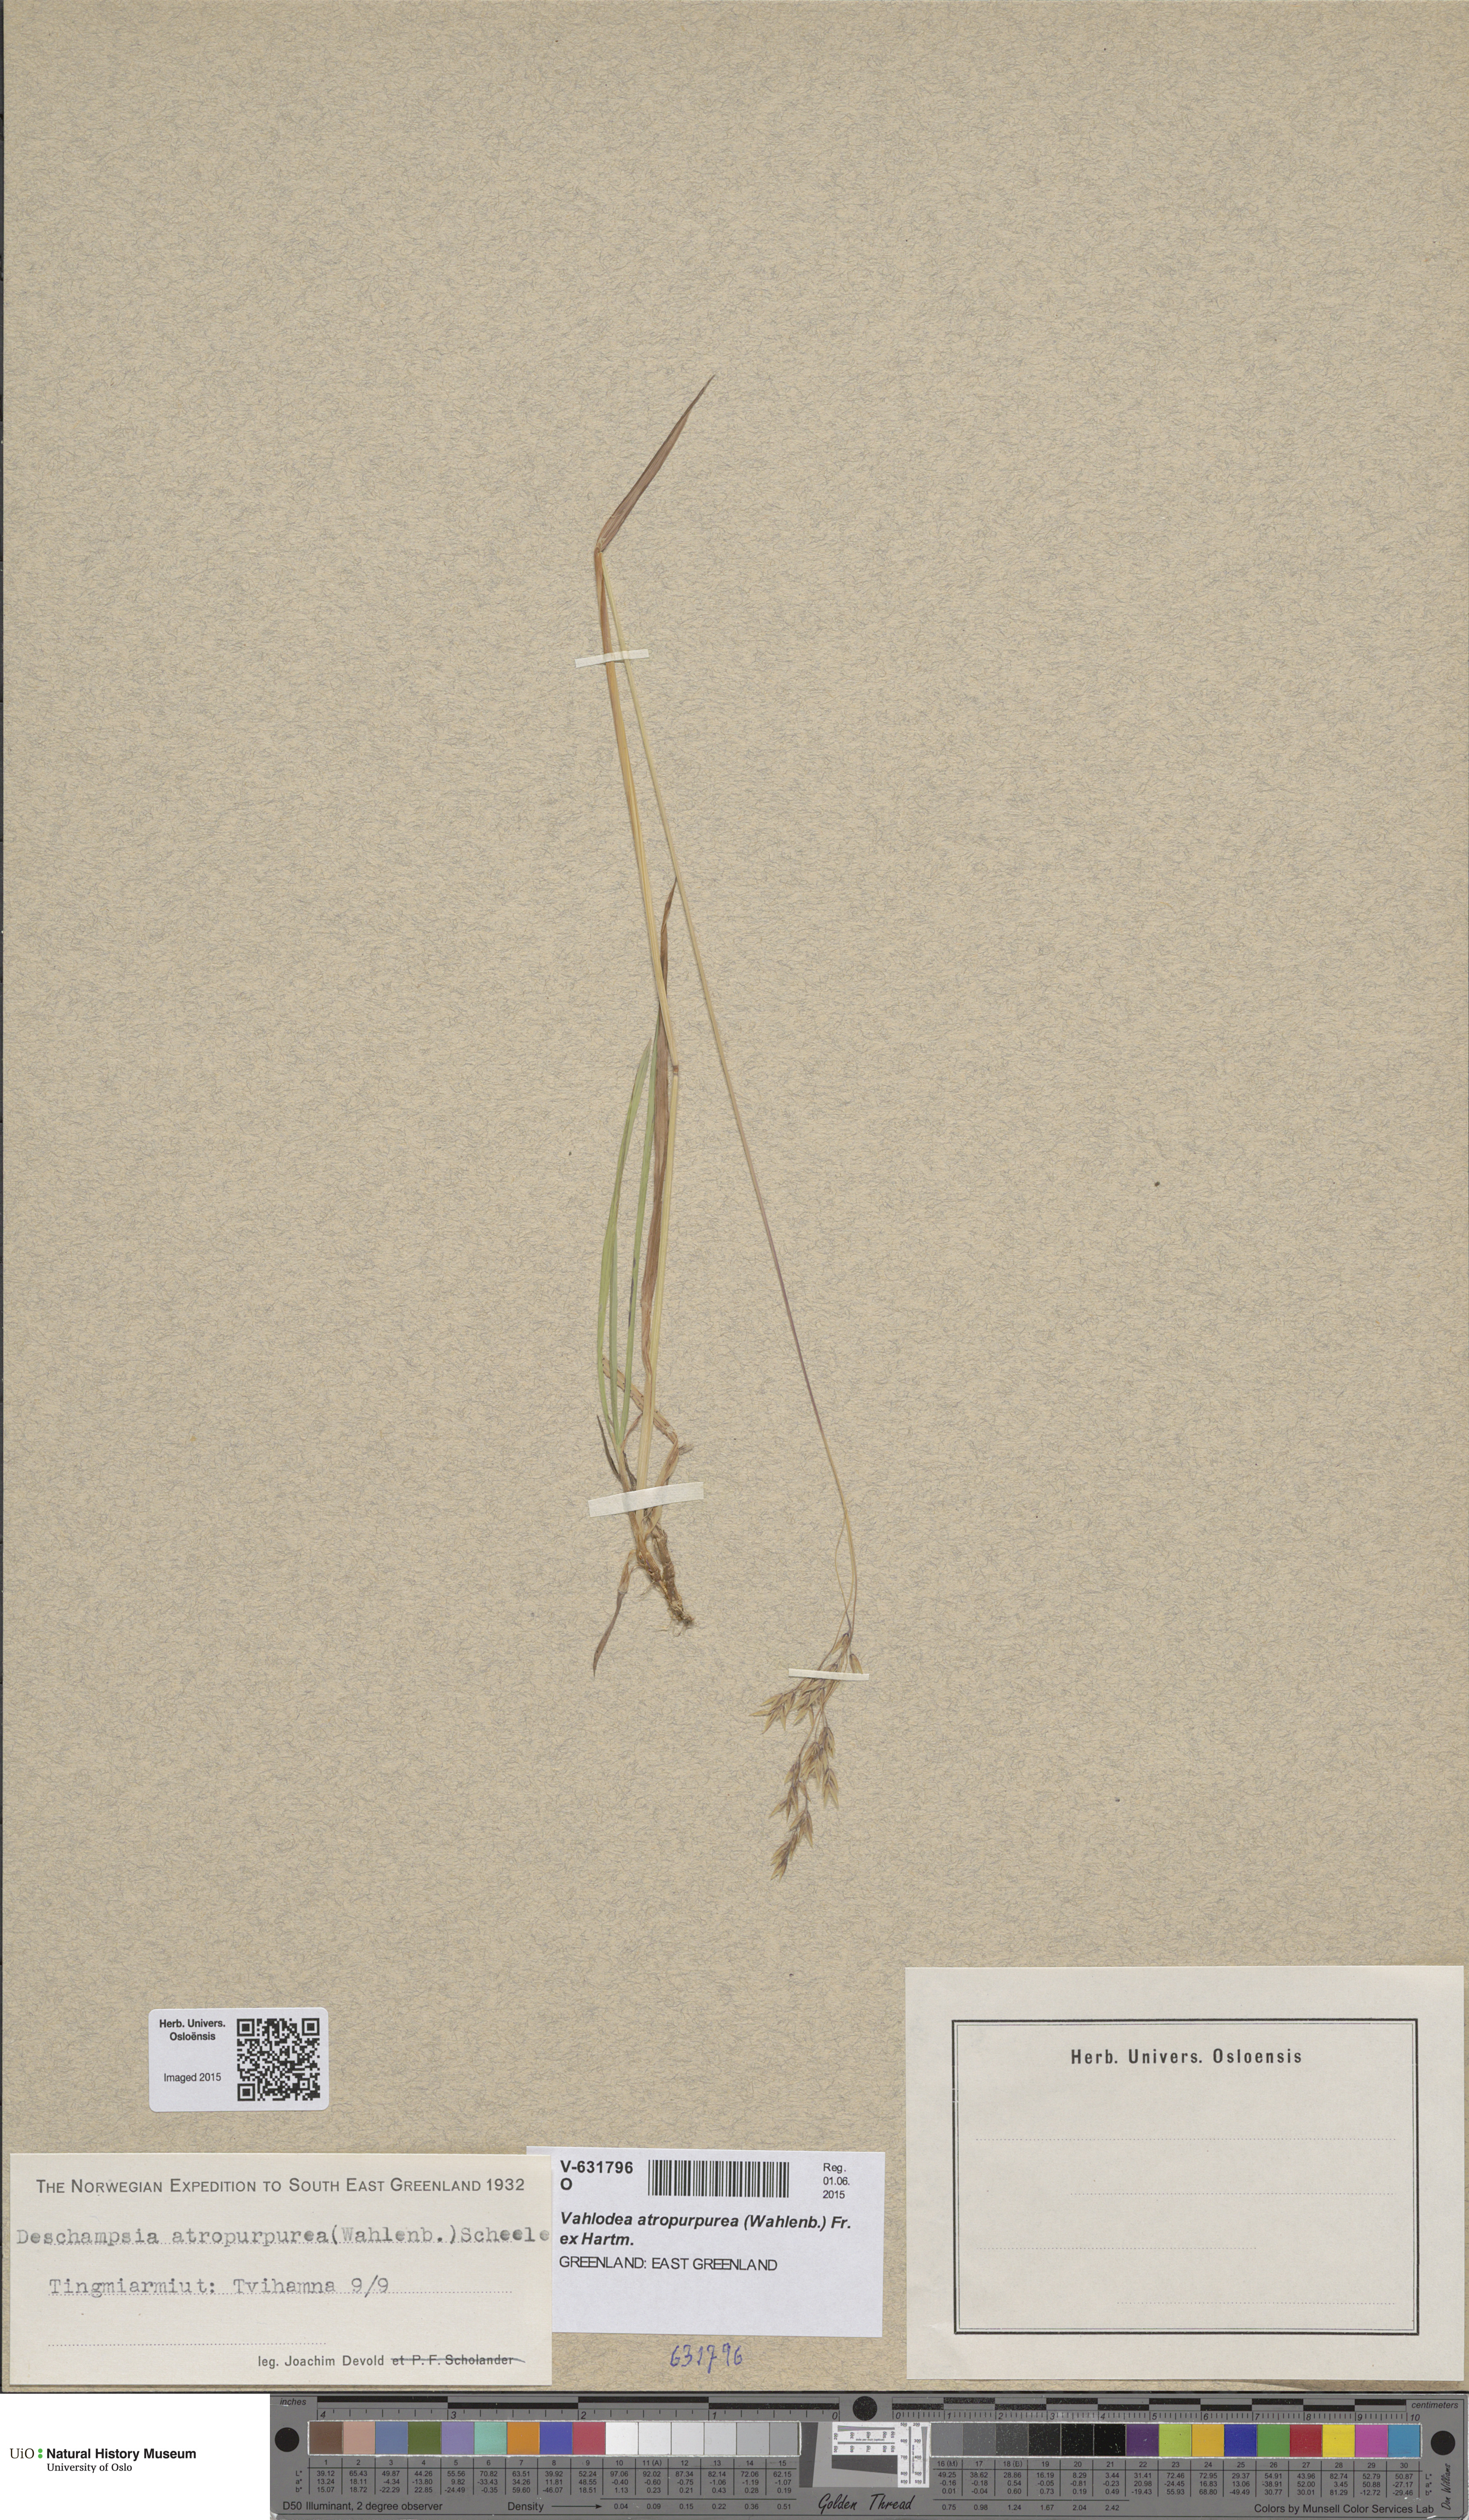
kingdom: Plantae
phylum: Tracheophyta
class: Liliopsida
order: Poales
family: Poaceae
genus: Vahlodea
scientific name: Vahlodea atropurpurea
